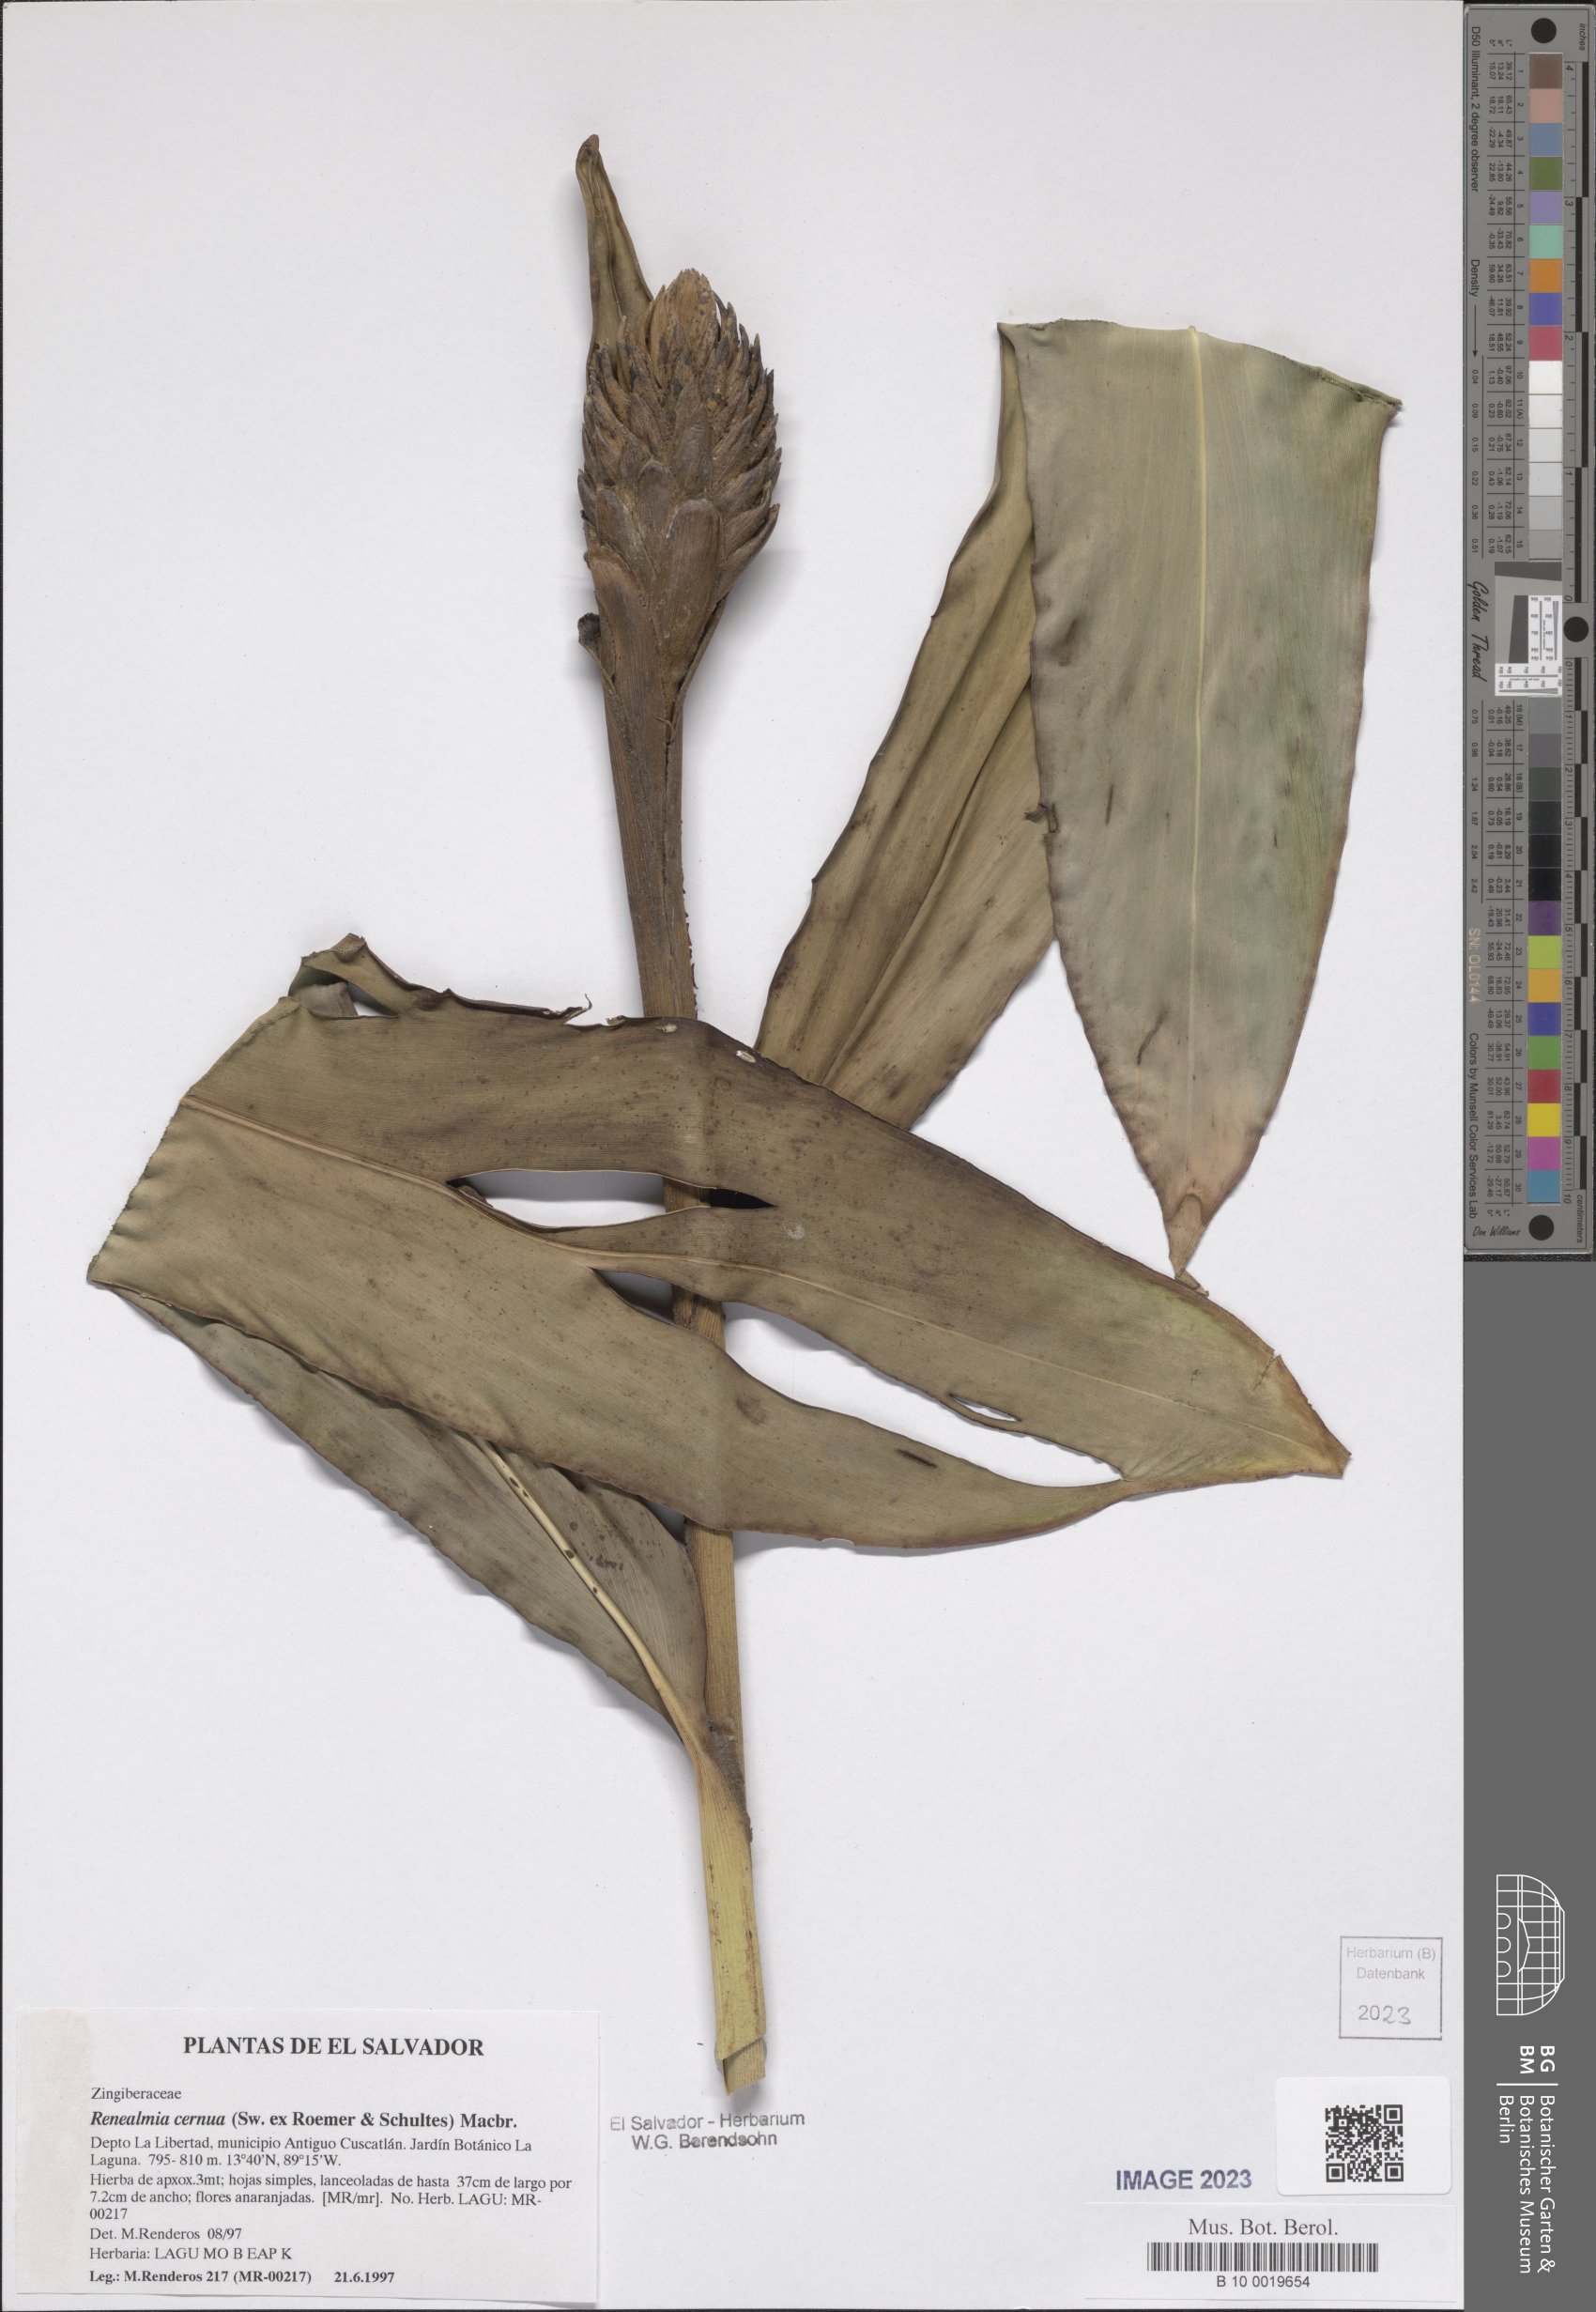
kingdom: Plantae
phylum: Tracheophyta
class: Liliopsida
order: Zingiberales
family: Zingiberaceae
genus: Renealmia
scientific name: Renealmia cernua
